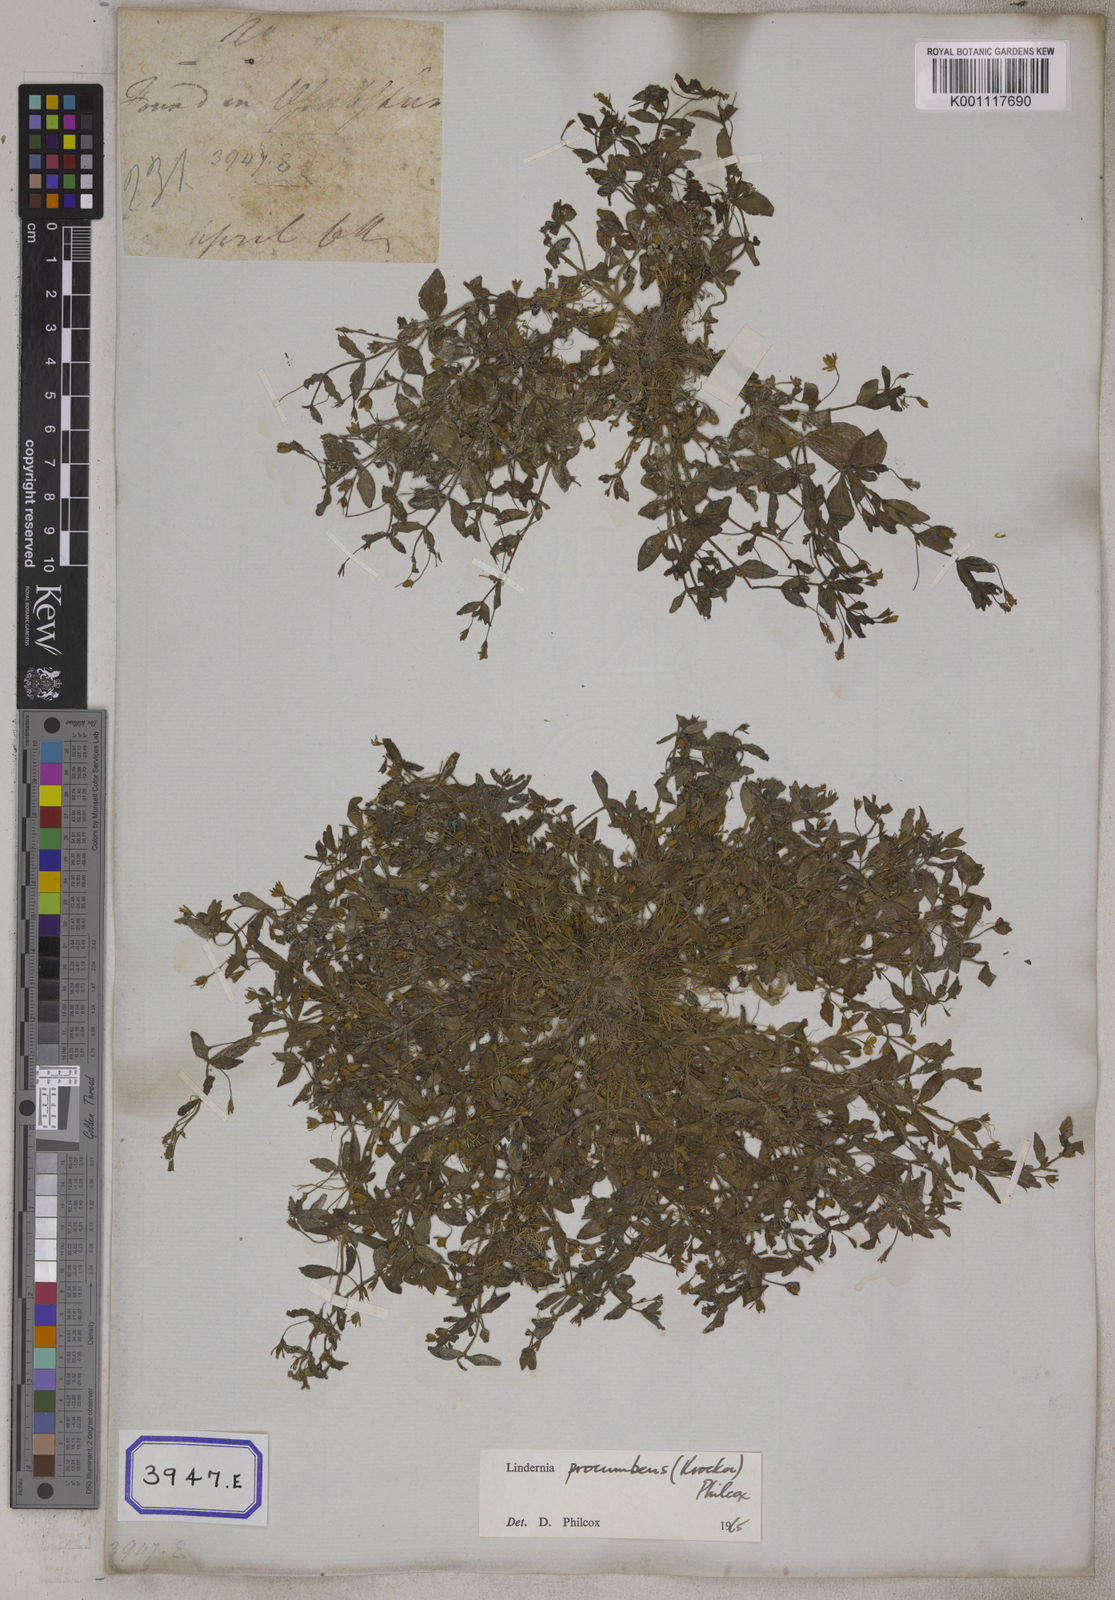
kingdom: Plantae
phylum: Tracheophyta
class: Magnoliopsida
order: Lamiales
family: Linderniaceae
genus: Lindernia
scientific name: Lindernia procumbens
